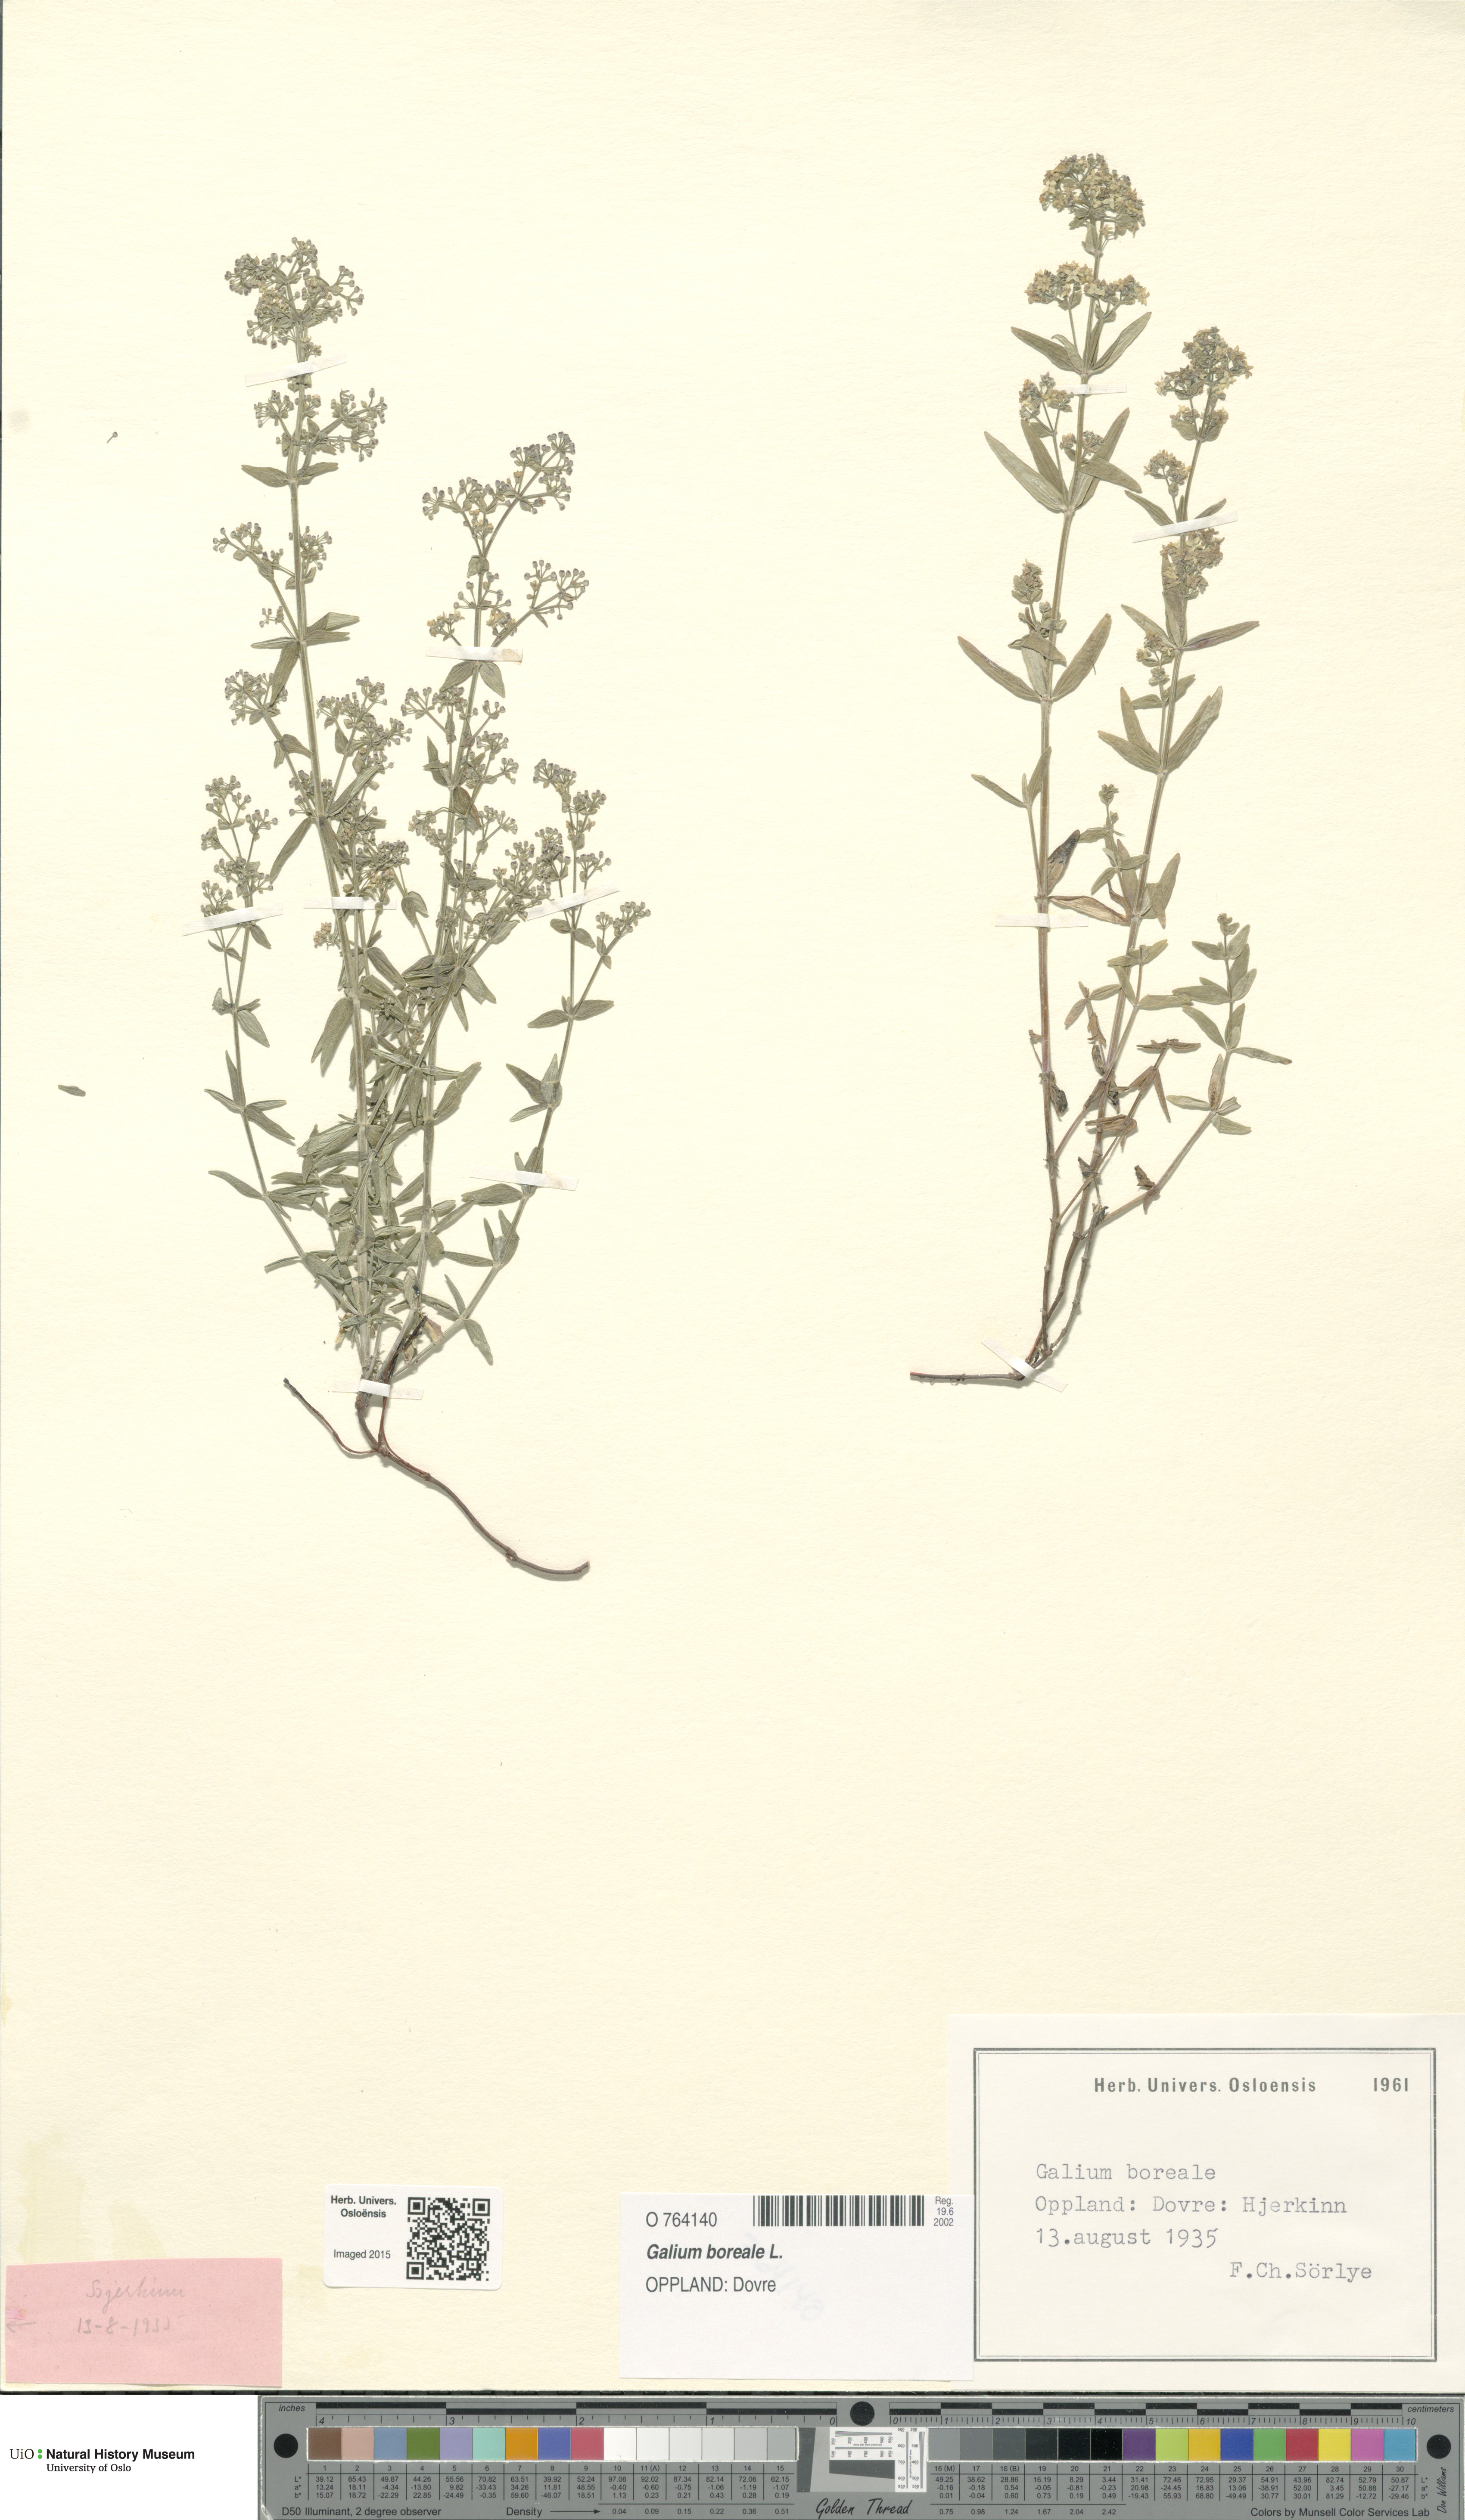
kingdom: Plantae
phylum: Tracheophyta
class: Magnoliopsida
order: Gentianales
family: Rubiaceae
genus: Galium
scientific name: Galium boreale
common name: Northern bedstraw
